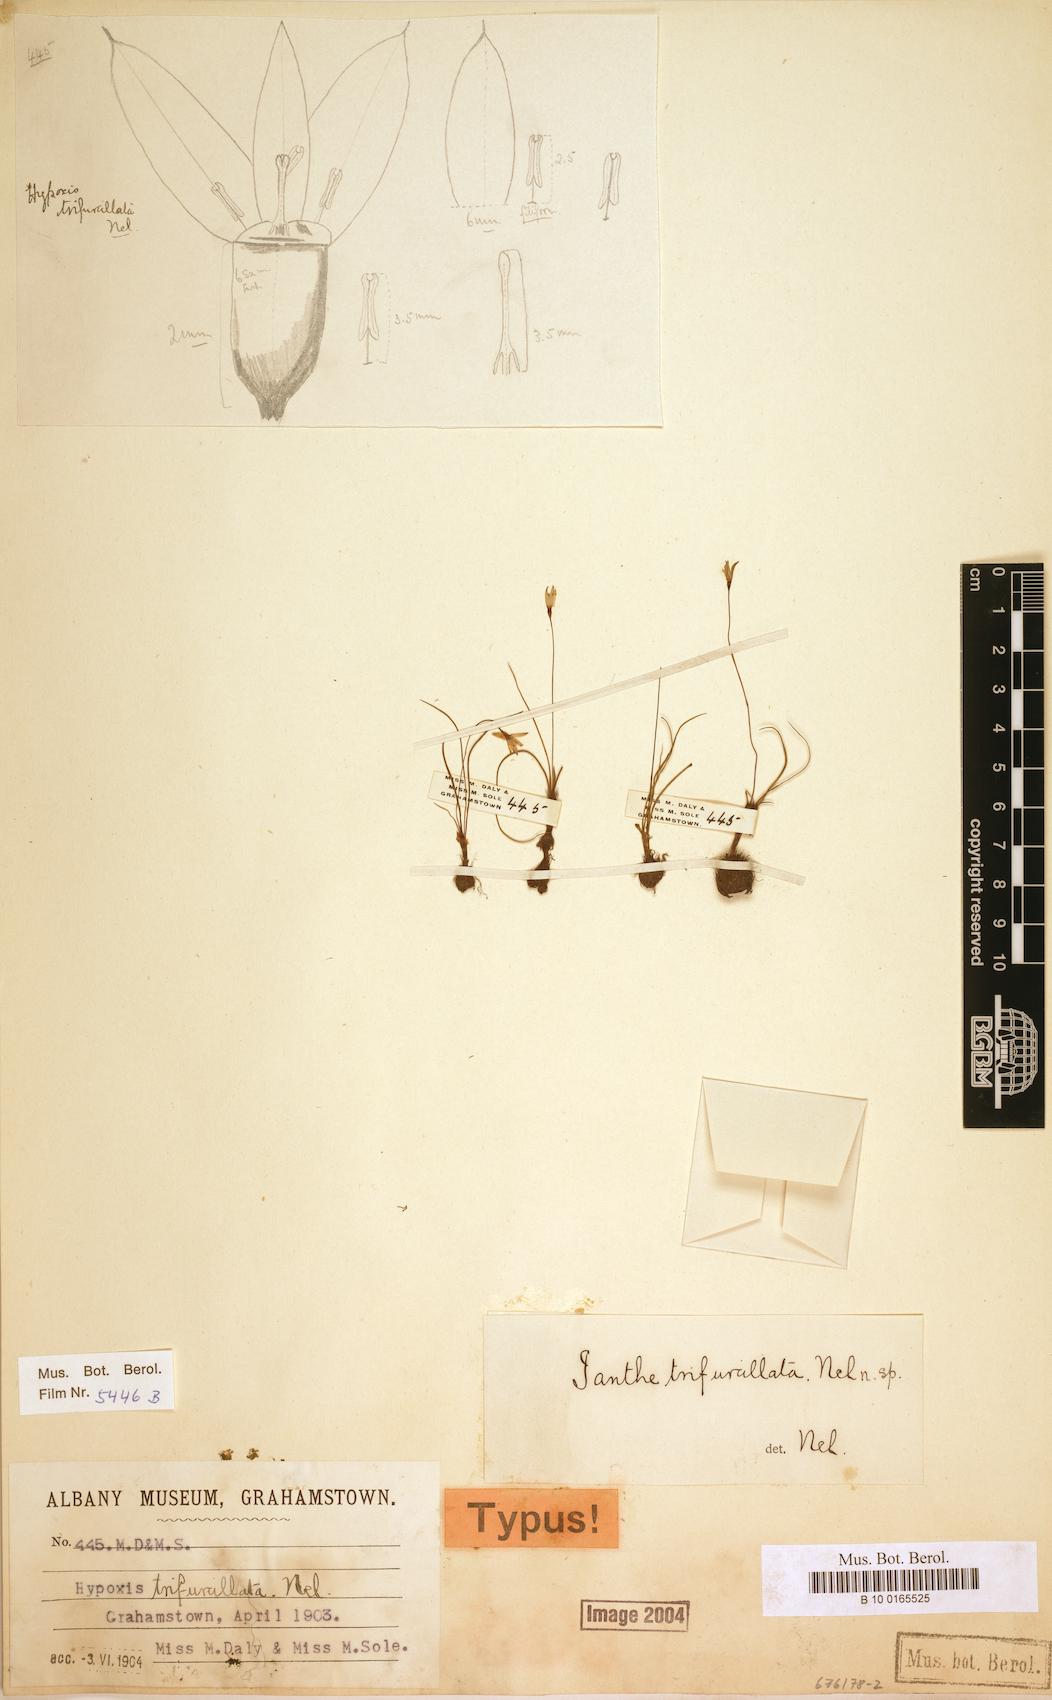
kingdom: Plantae
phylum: Tracheophyta
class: Liliopsida
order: Asparagales
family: Hypoxidaceae
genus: Pauridia
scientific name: Pauridia trifurcillata
